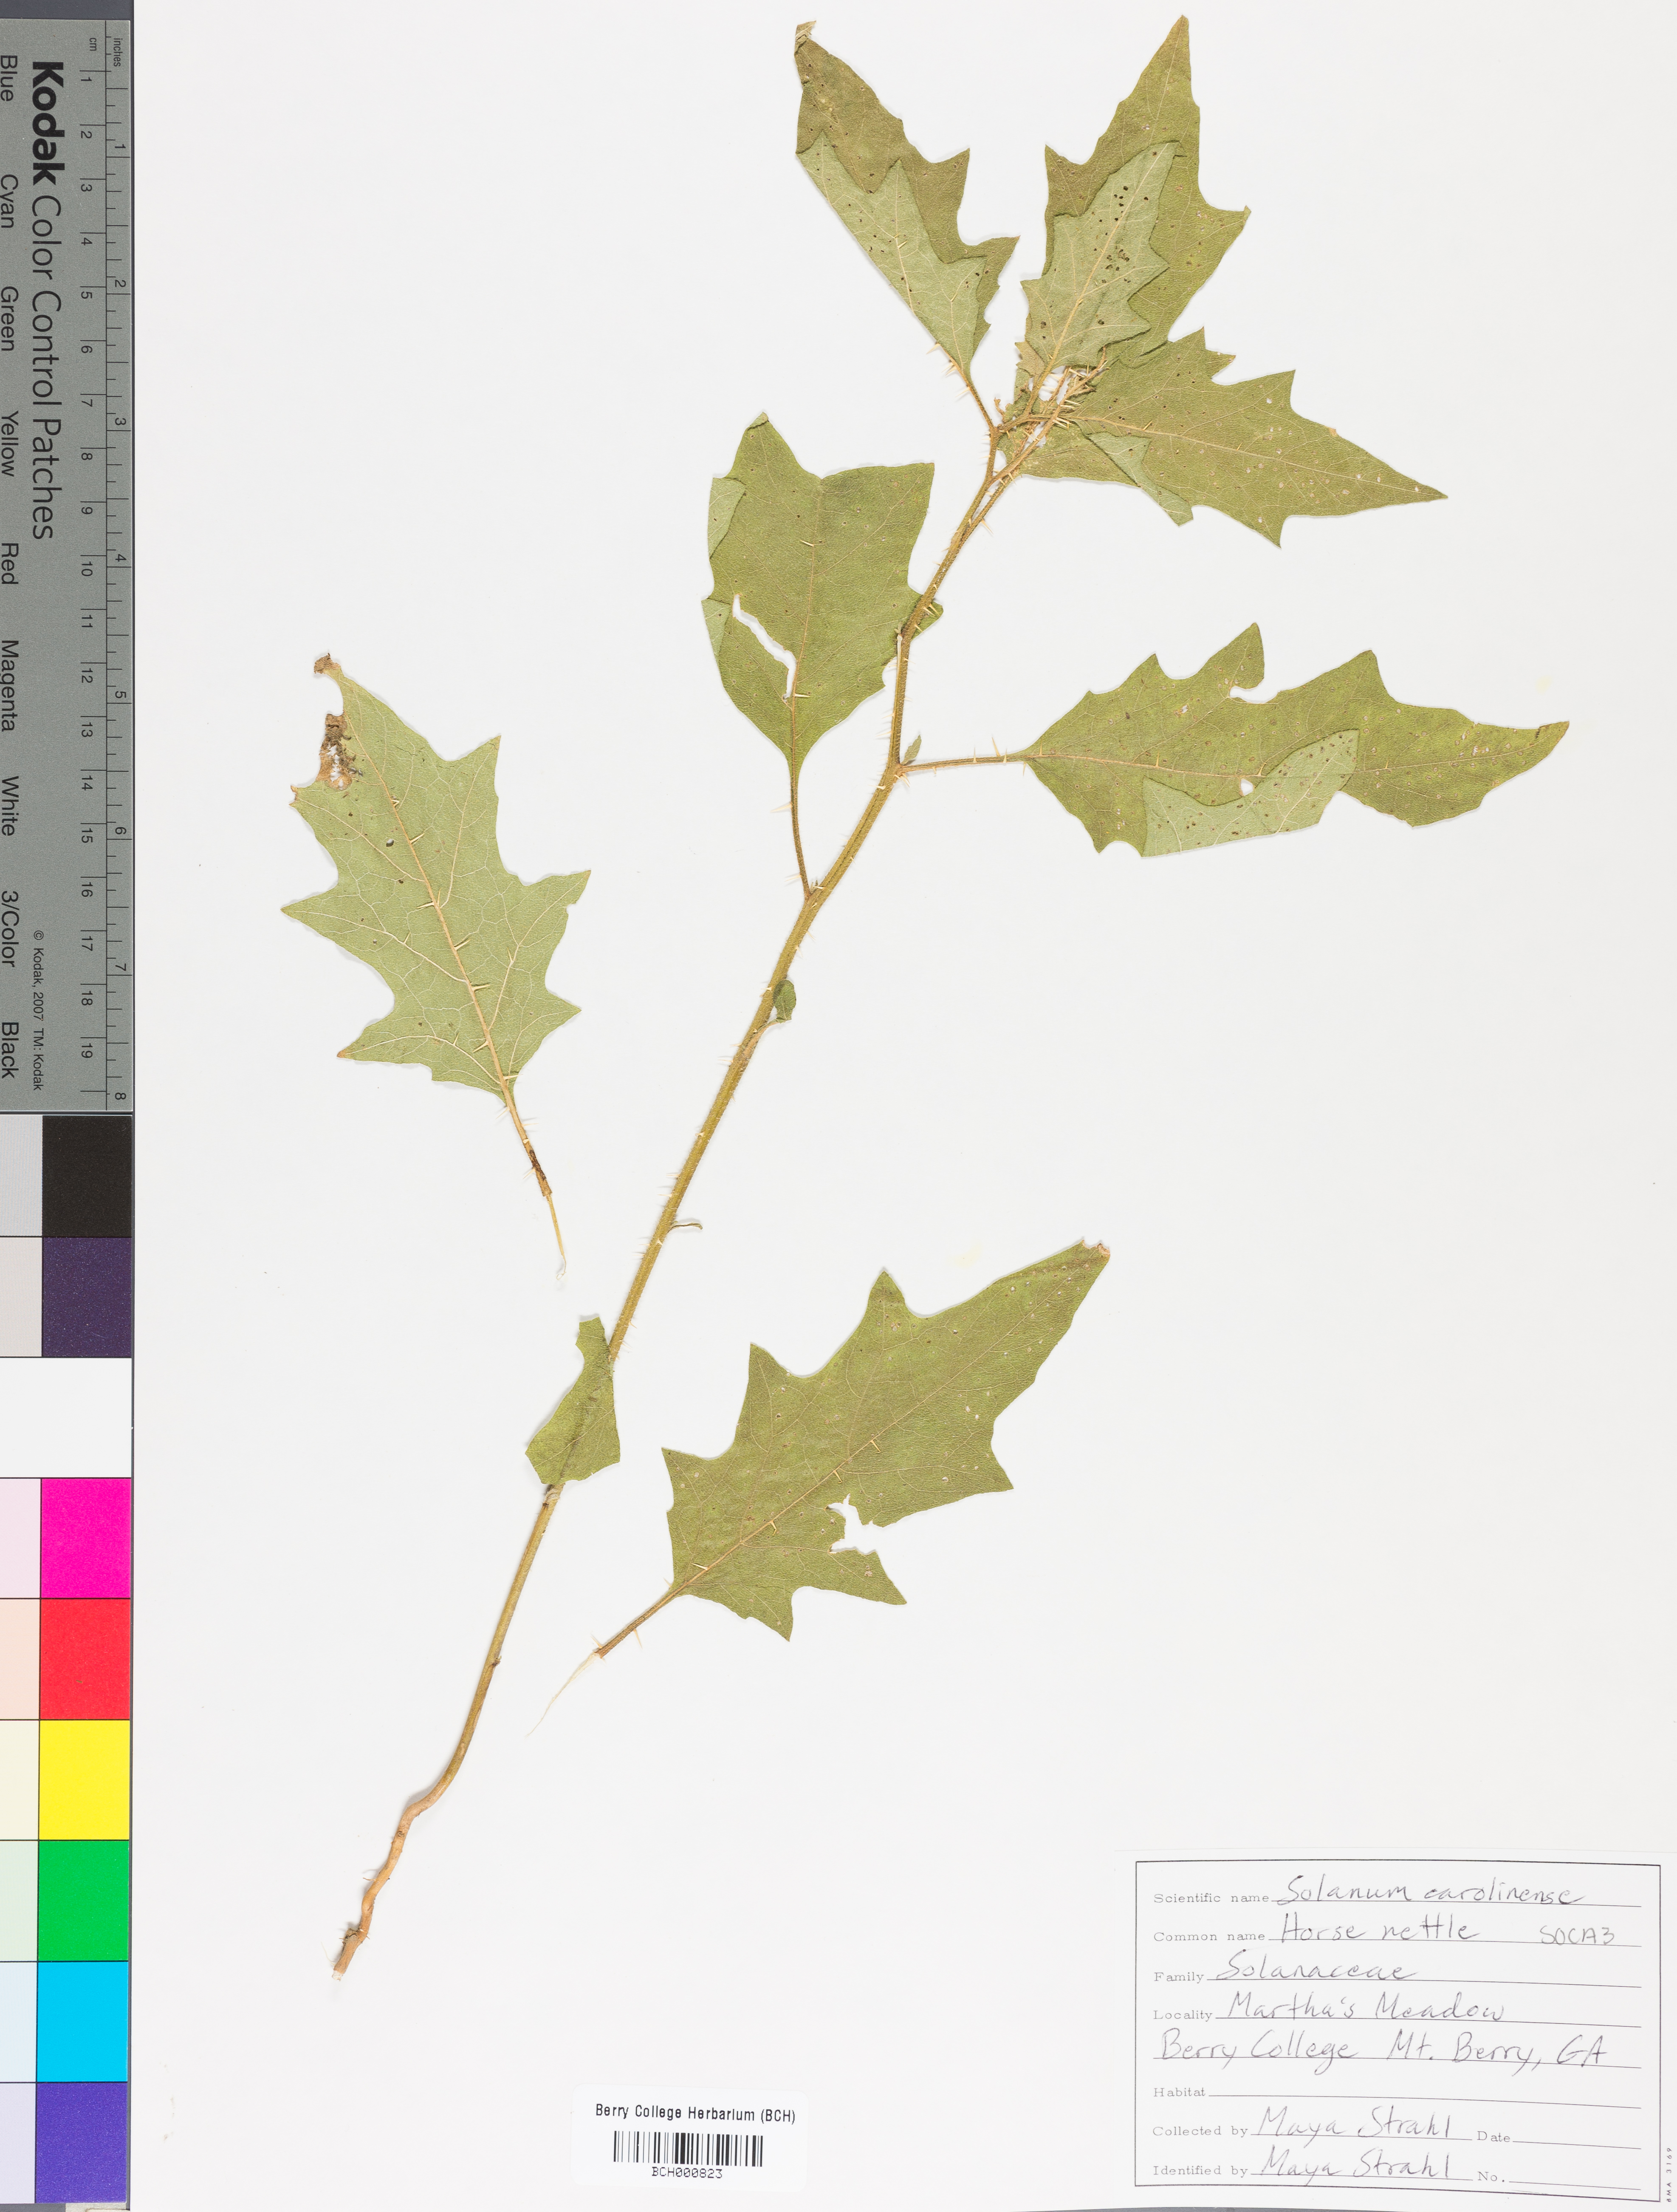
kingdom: Plantae
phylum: Tracheophyta
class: Magnoliopsida
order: Solanales
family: Solanaceae
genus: Solanum
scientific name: Solanum carolinense
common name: Horse-nettle
